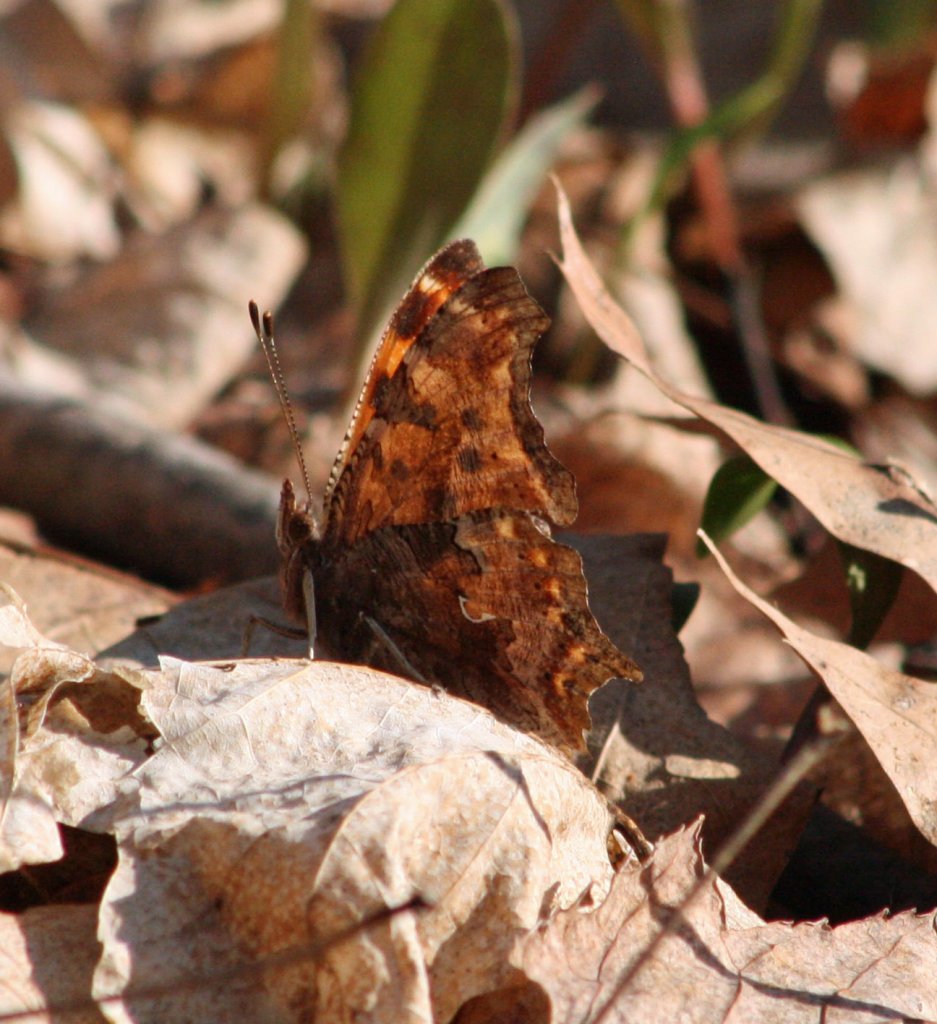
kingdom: Animalia
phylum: Arthropoda
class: Insecta
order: Lepidoptera
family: Nymphalidae
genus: Polygonia
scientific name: Polygonia comma
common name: Eastern Comma
